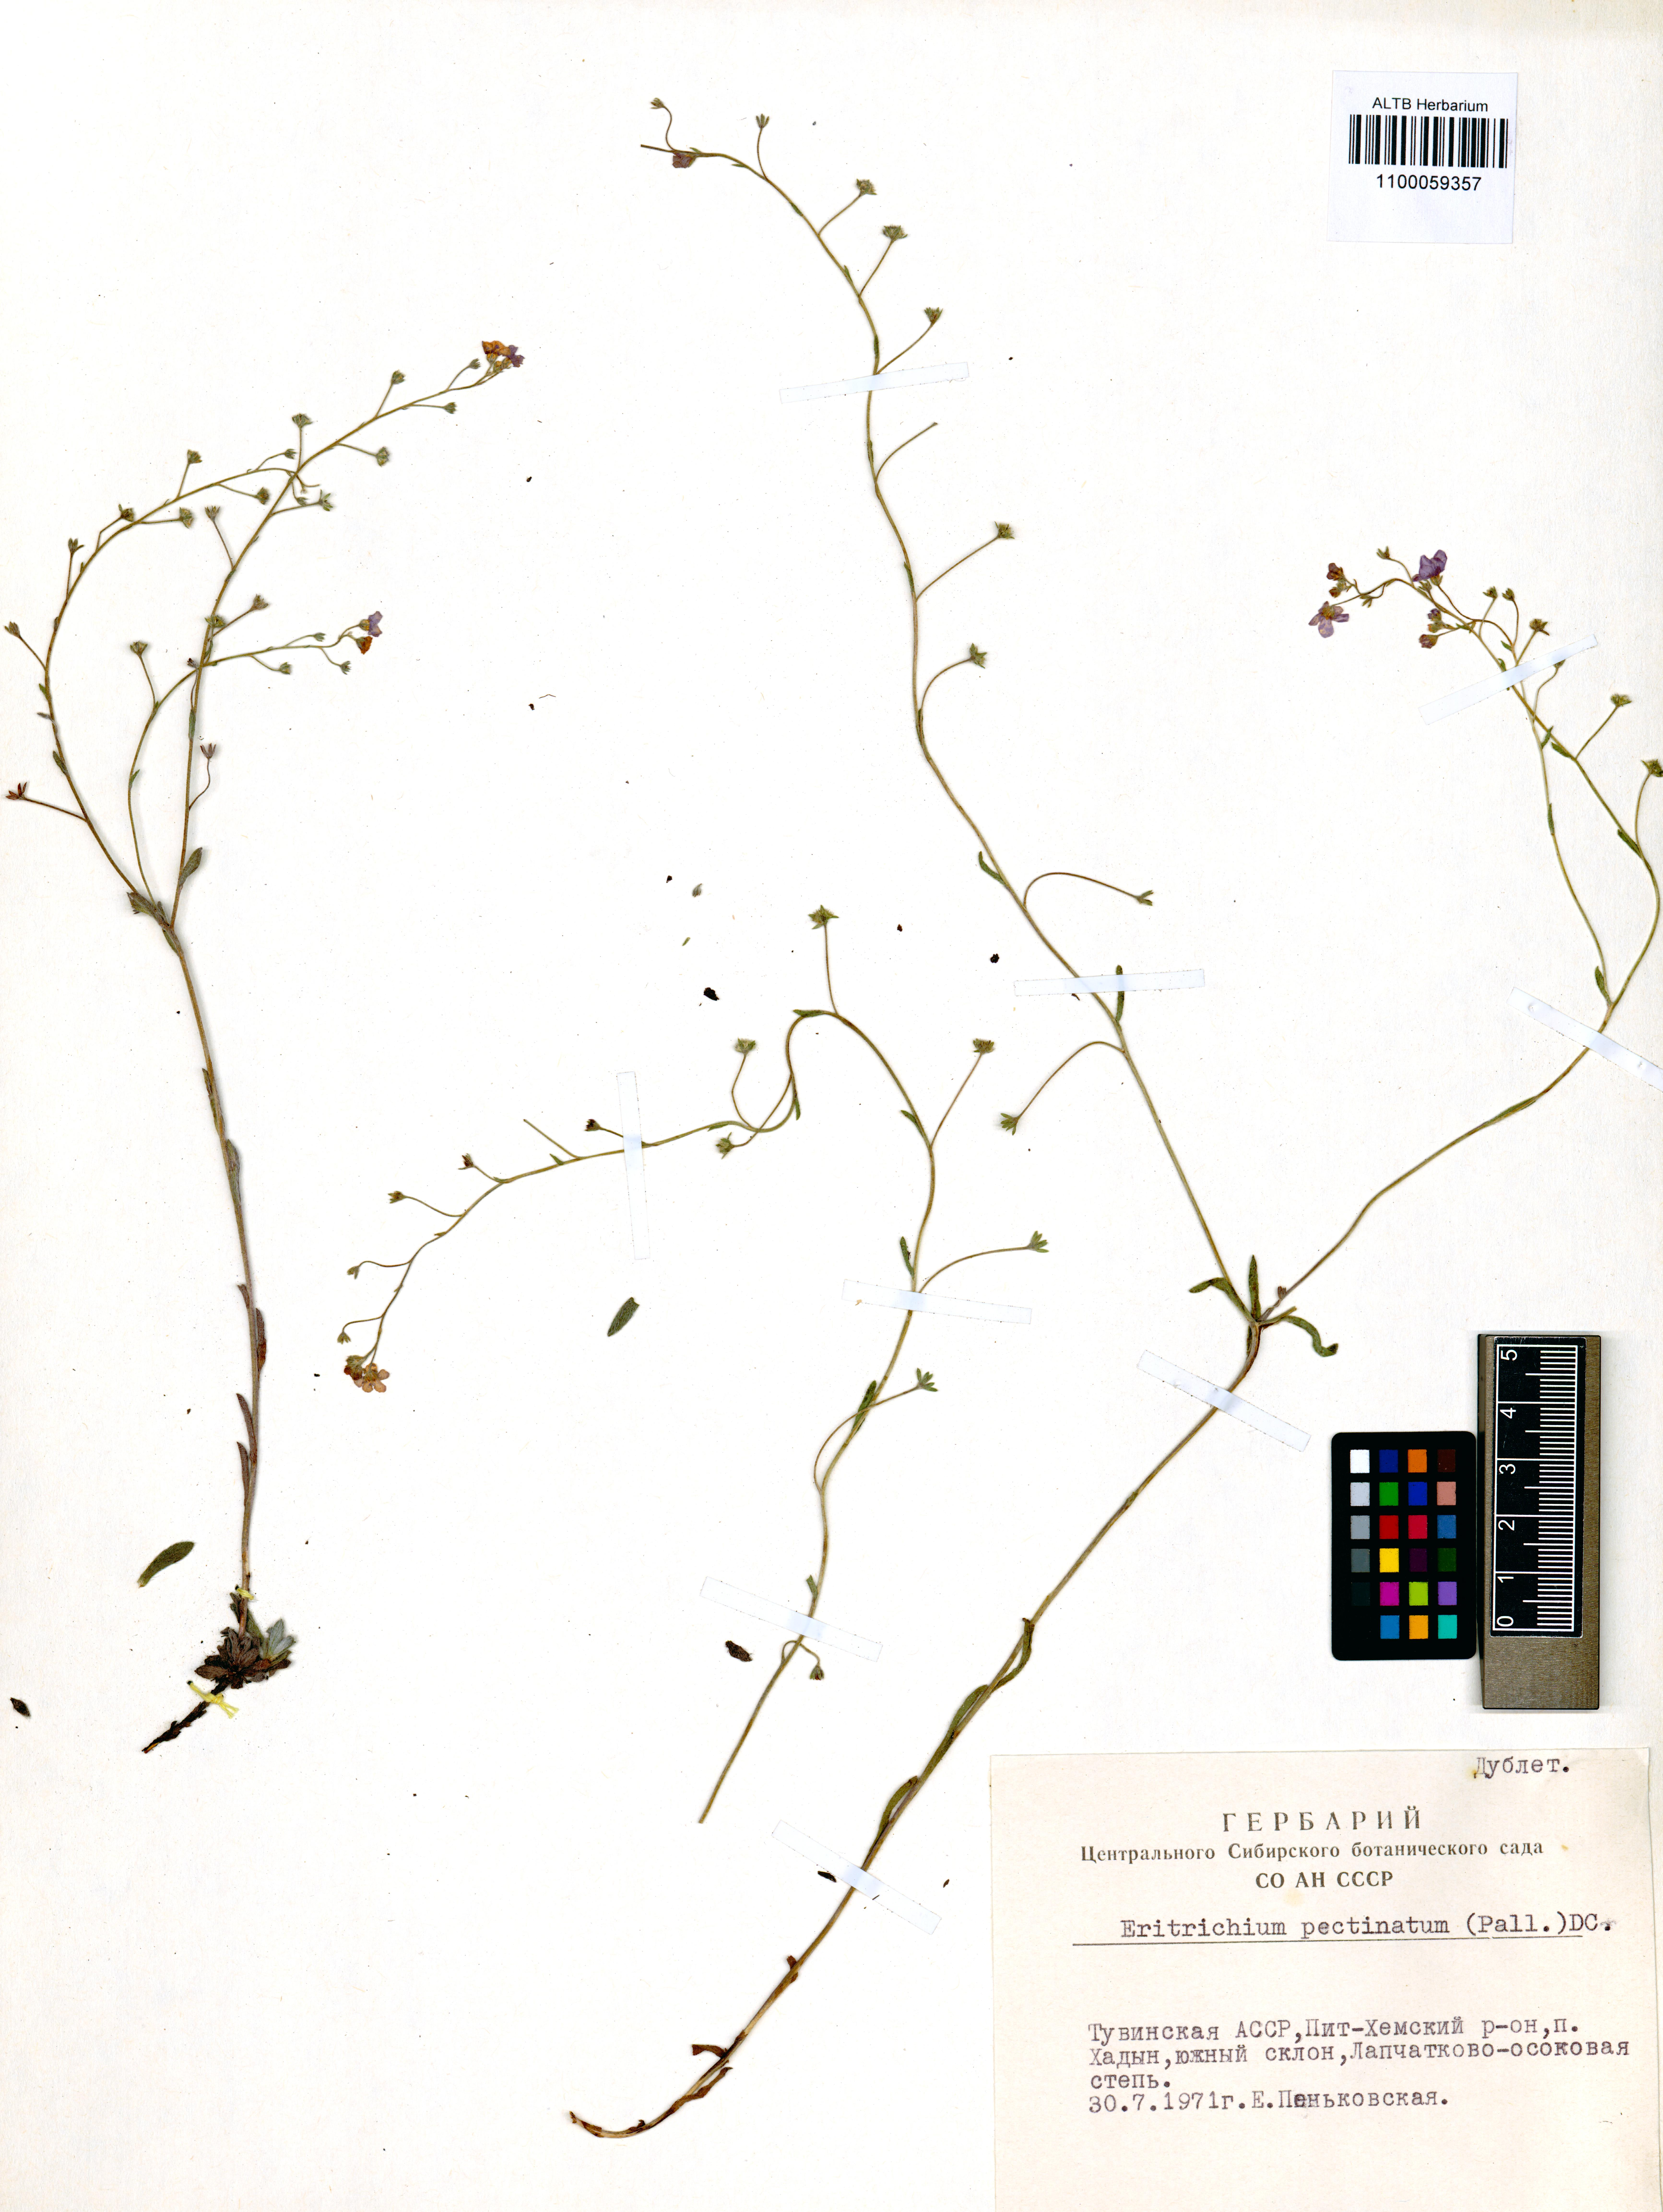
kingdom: Plantae
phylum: Tracheophyta
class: Magnoliopsida
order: Boraginales
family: Boraginaceae
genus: Eritrichium
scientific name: Eritrichium pectinatum
